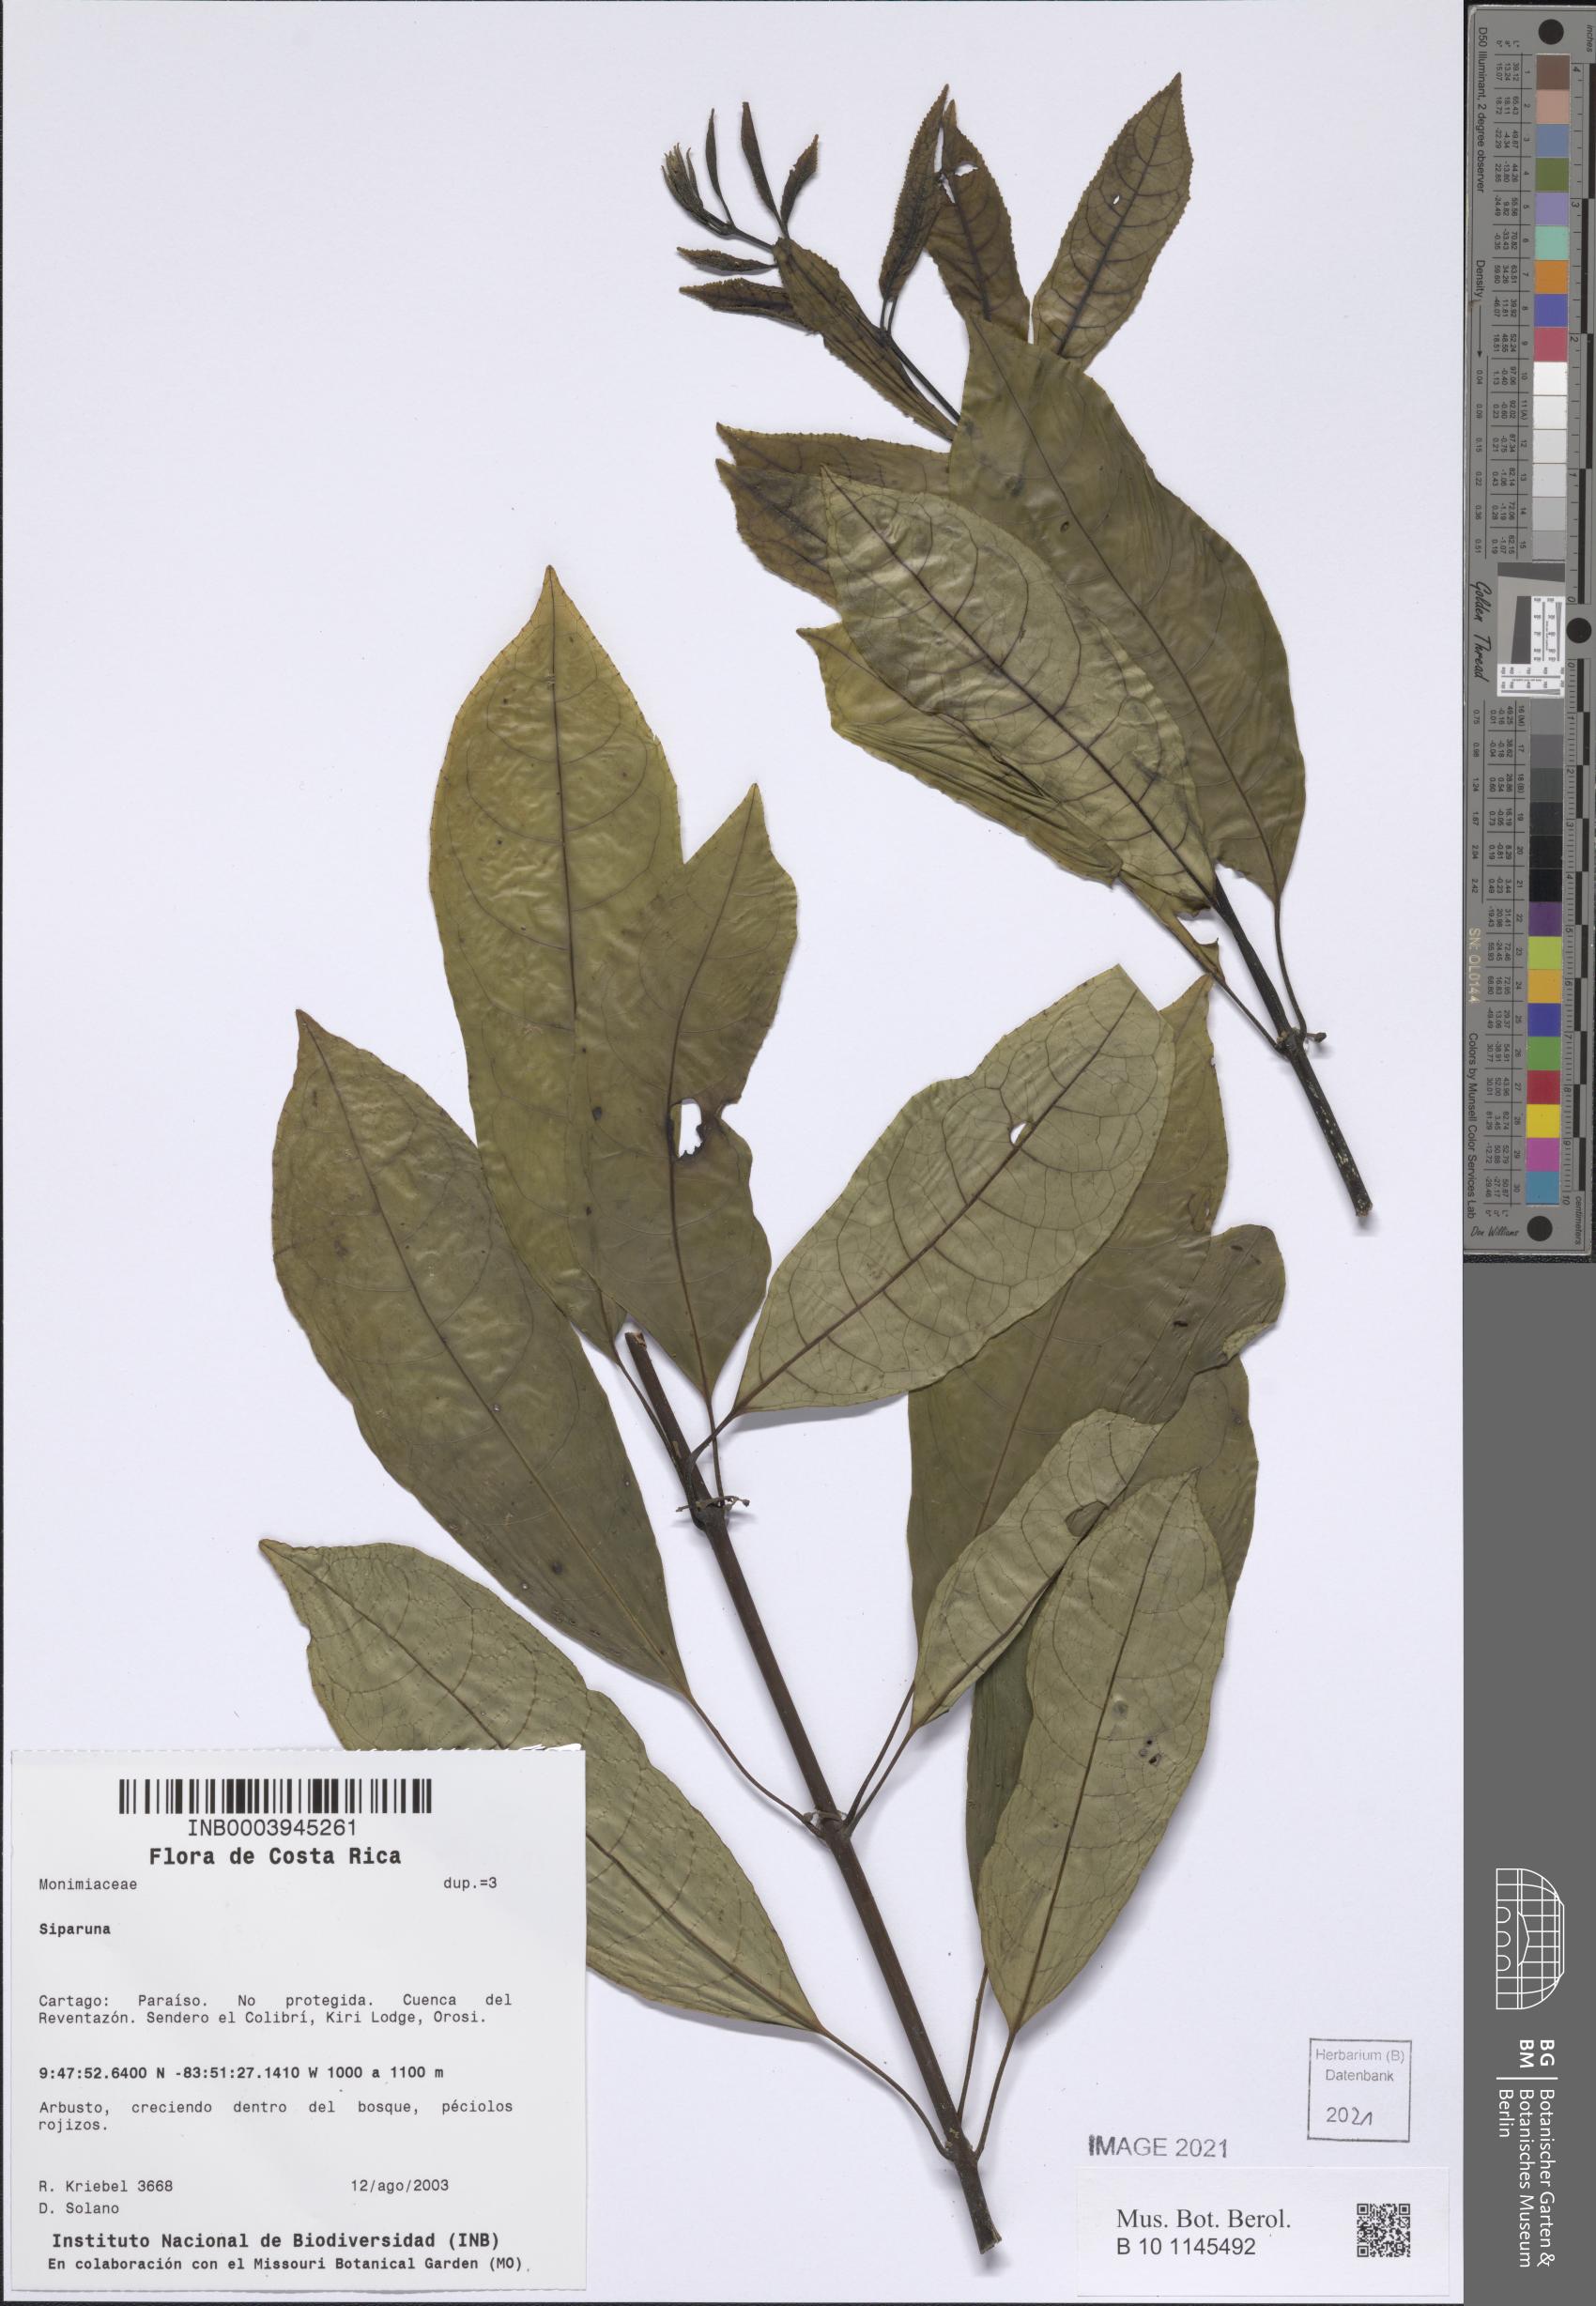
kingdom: Plantae
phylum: Tracheophyta
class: Magnoliopsida
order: Laurales
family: Siparunaceae
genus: Siparuna
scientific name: Siparuna
